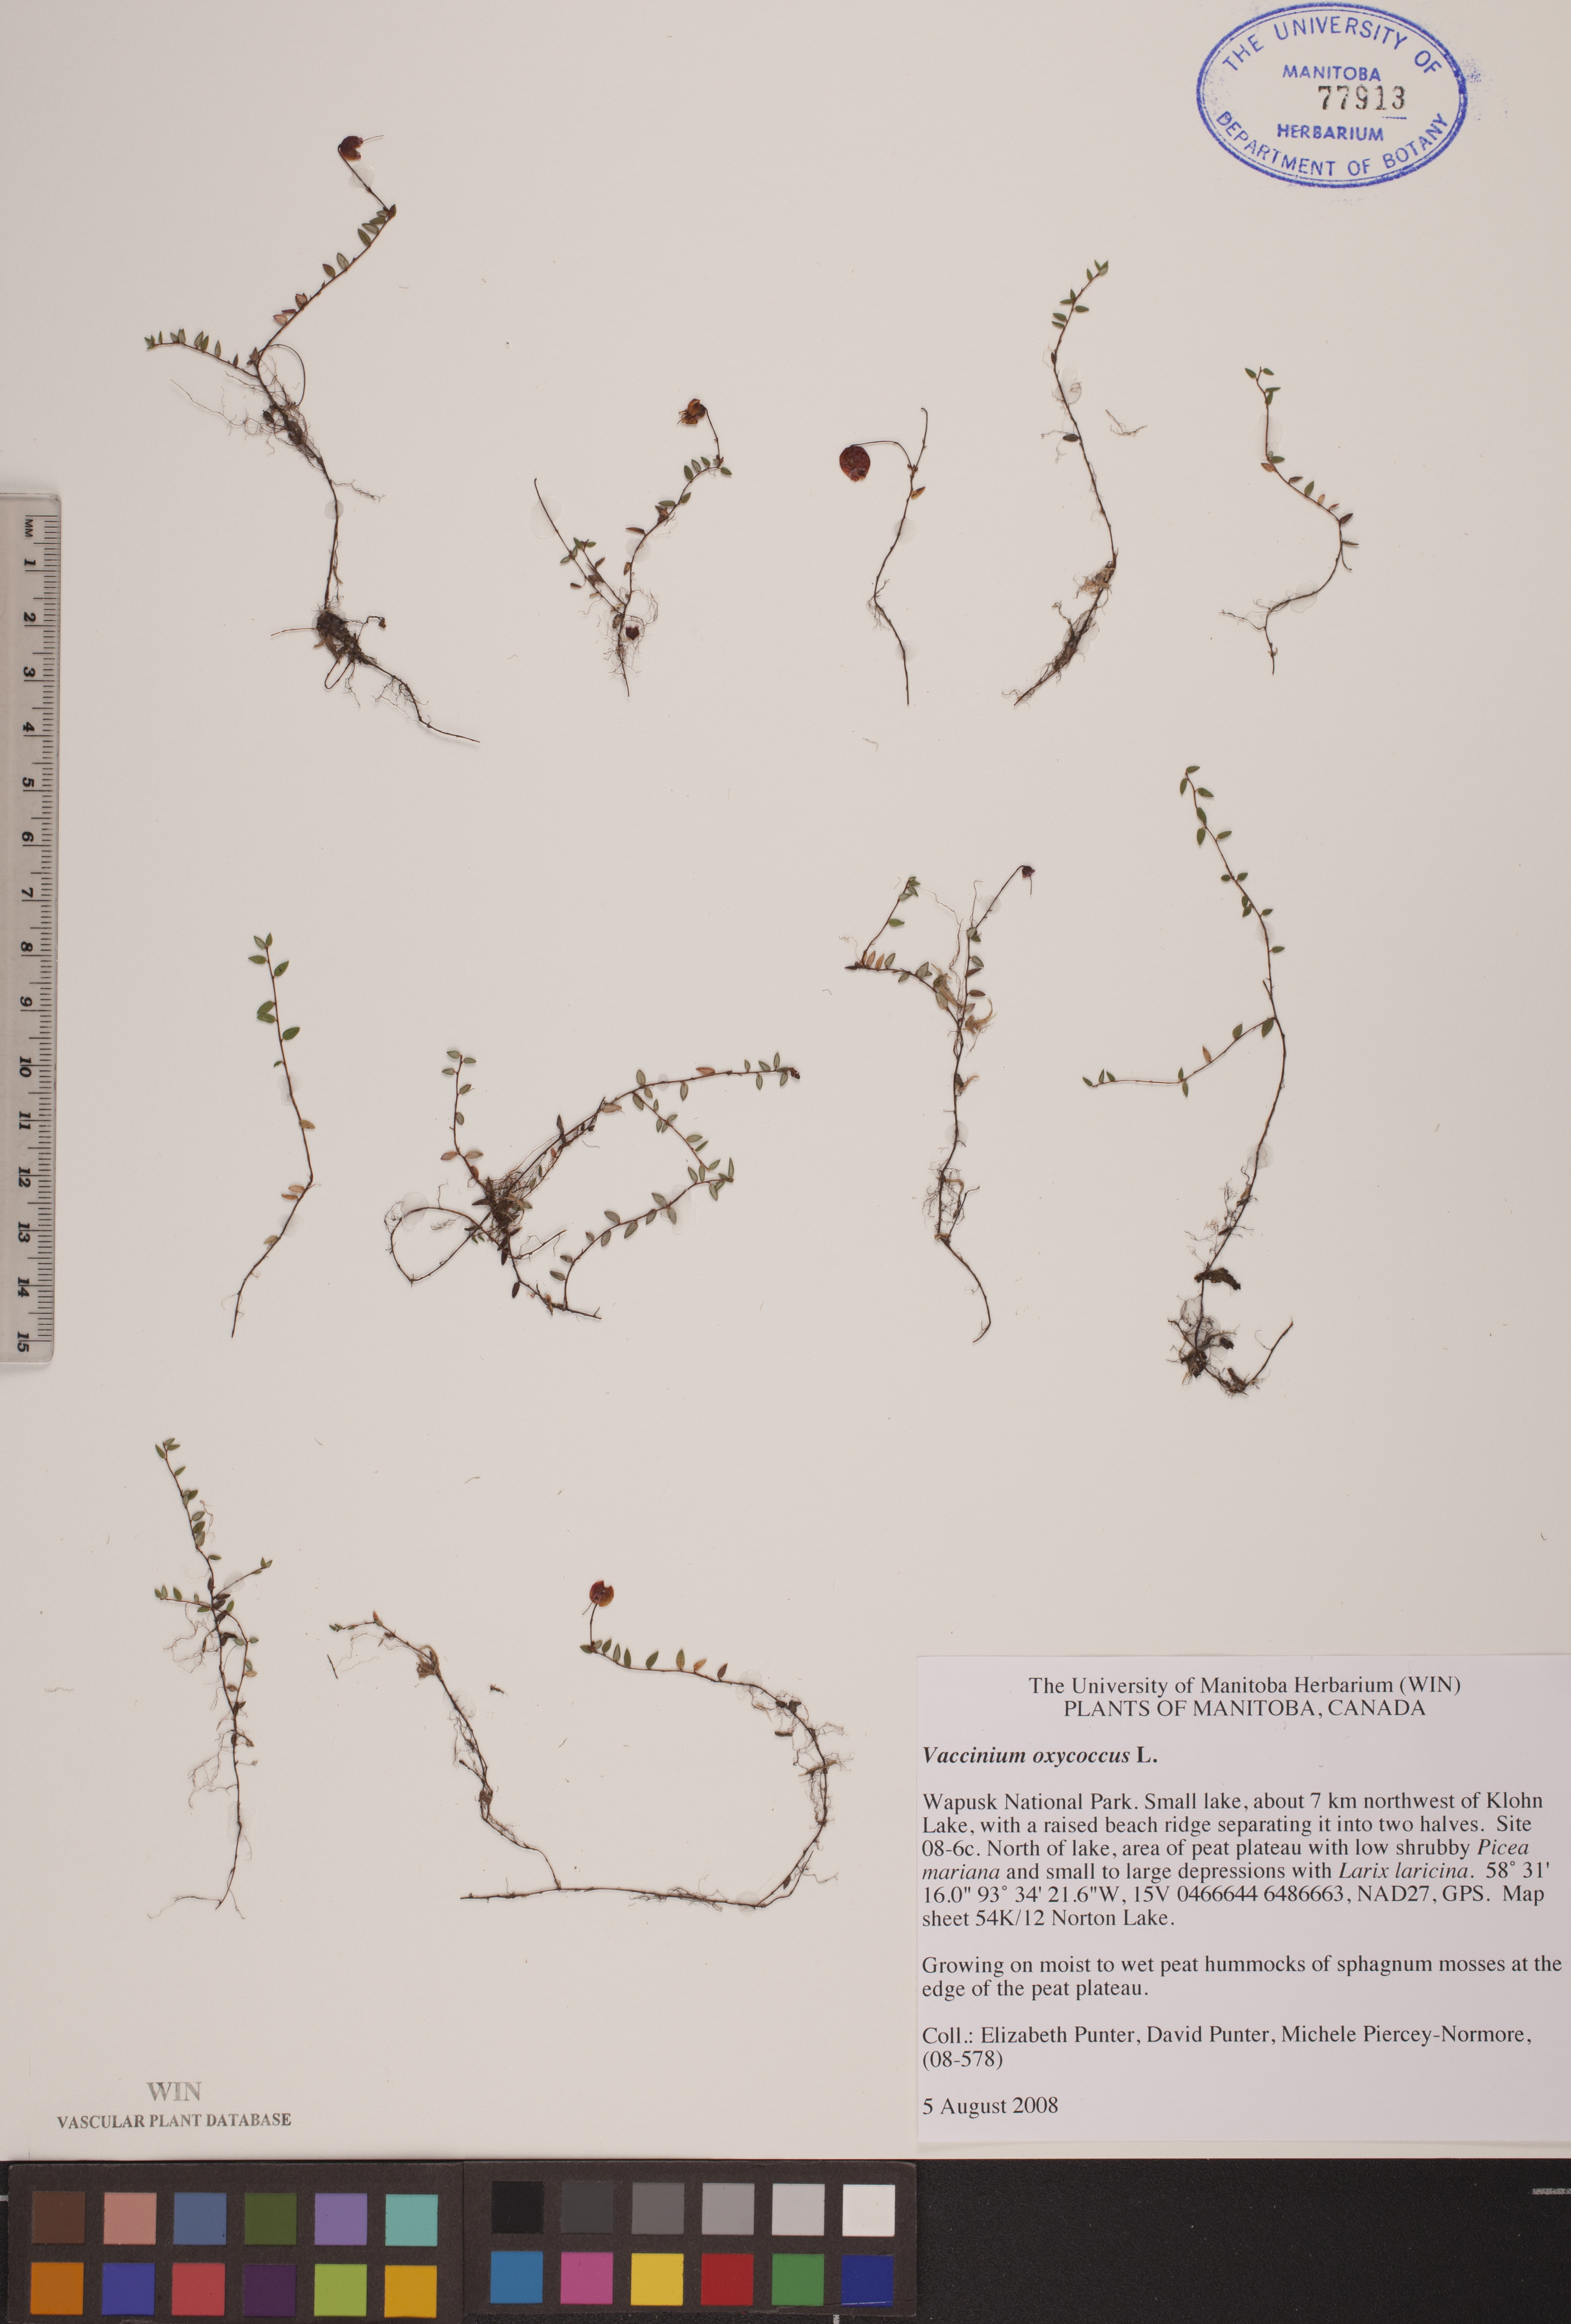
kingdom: Plantae
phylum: Tracheophyta
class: Magnoliopsida
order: Ericales
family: Ericaceae
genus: Vaccinium
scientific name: Vaccinium oxycoccos
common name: Cranberry
